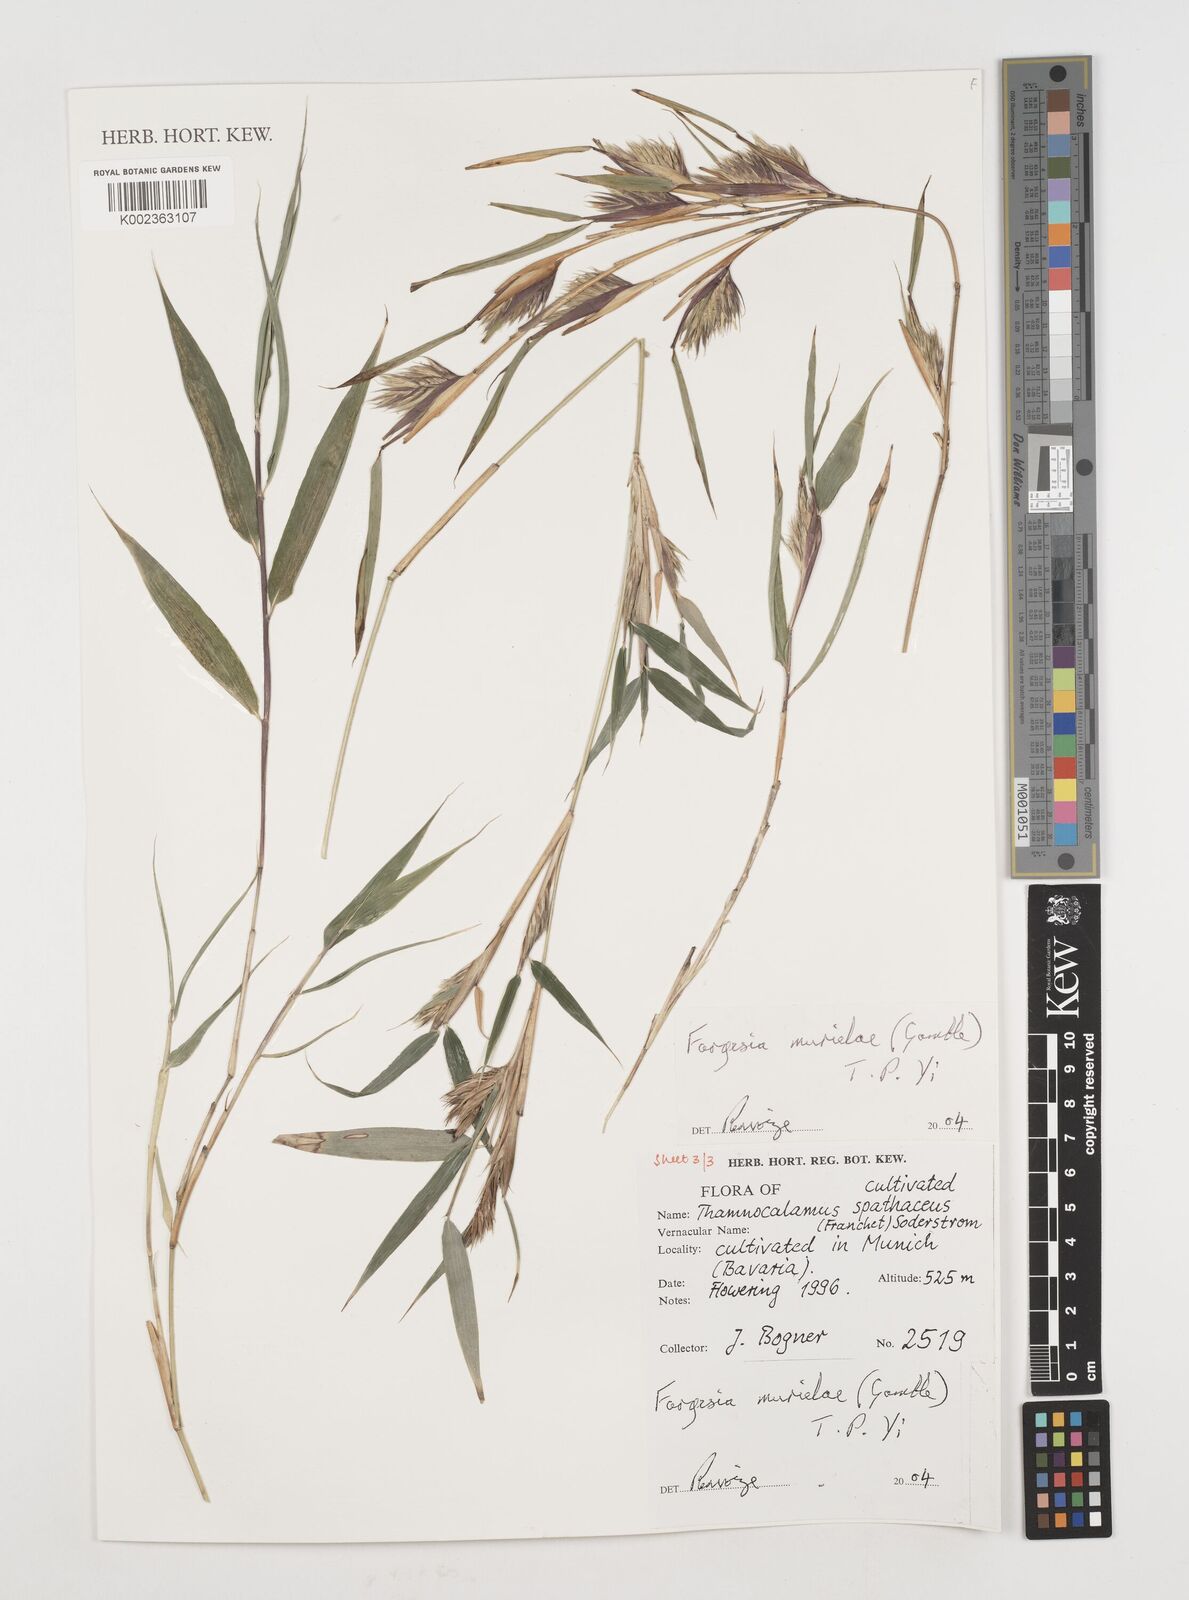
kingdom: Plantae
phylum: Tracheophyta
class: Liliopsida
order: Poales
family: Poaceae
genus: Fargesia
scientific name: Fargesia murielae
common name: Umbrella bamboo
